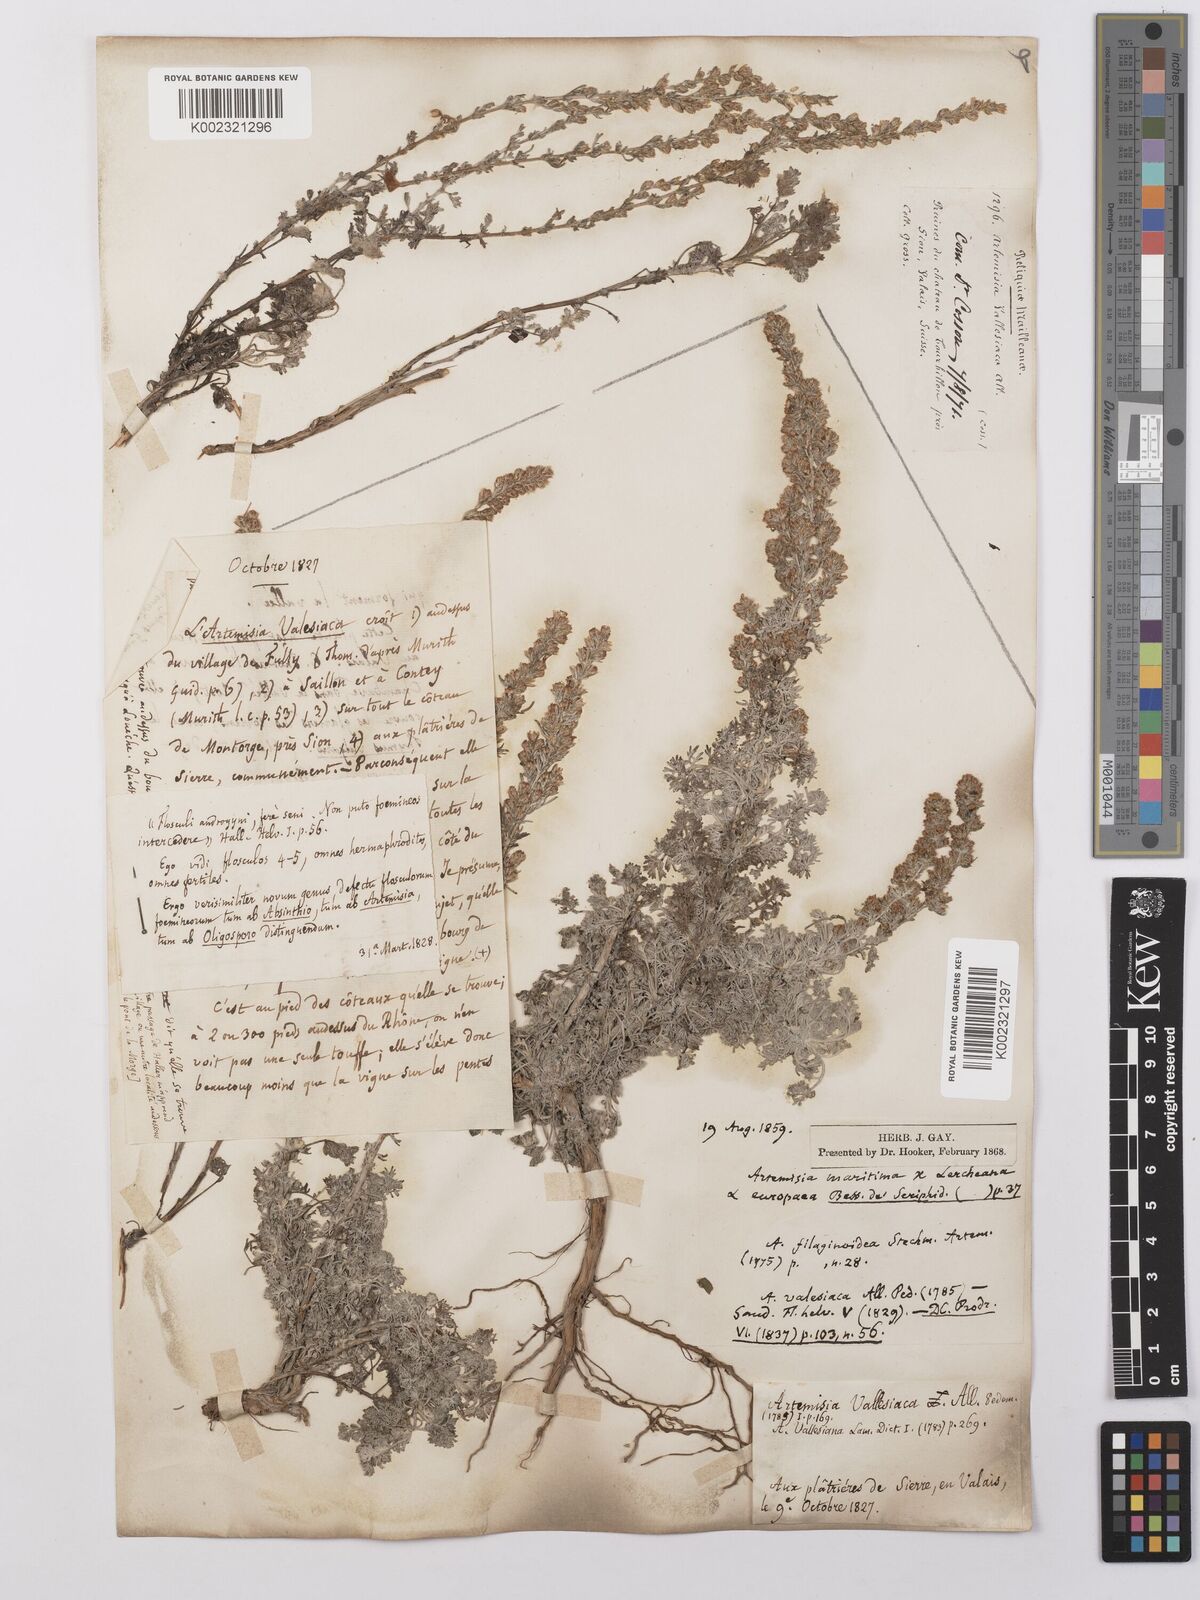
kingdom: Plantae
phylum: Tracheophyta
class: Magnoliopsida
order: Asterales
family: Asteraceae
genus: Artemisia
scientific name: Artemisia vallesiaca
